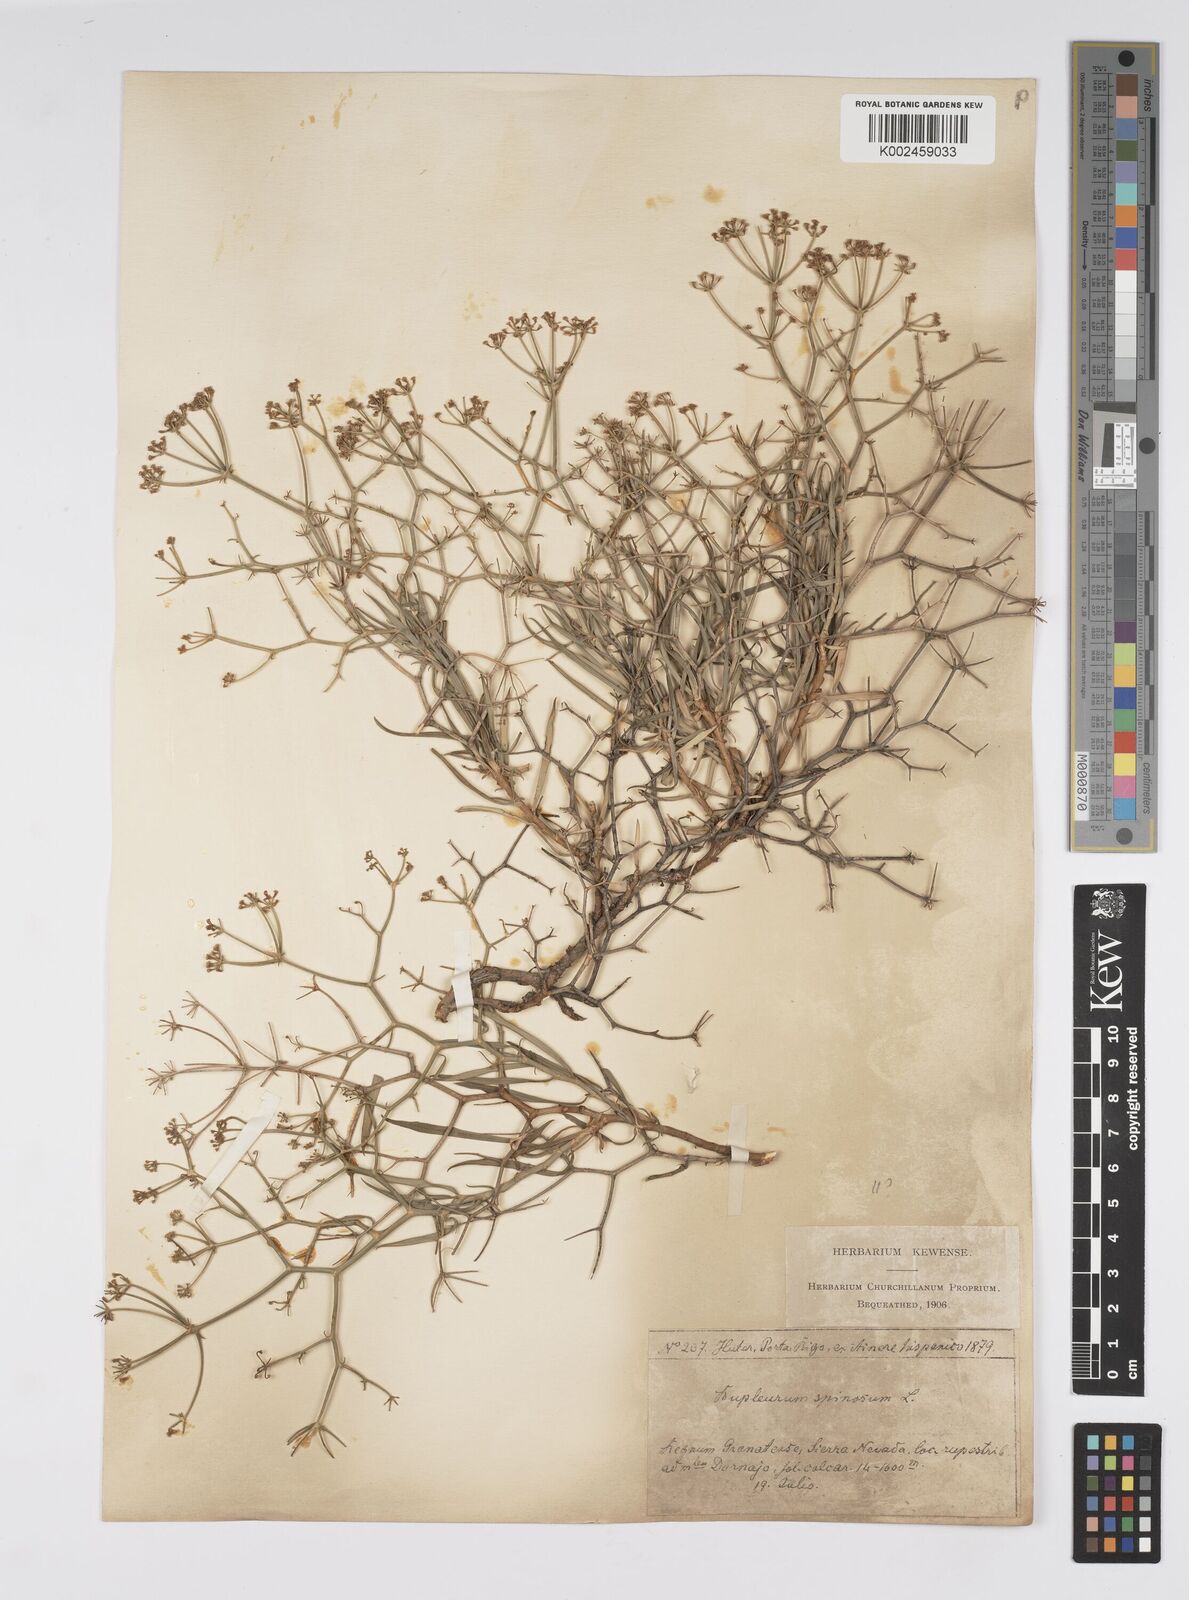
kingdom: Plantae
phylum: Tracheophyta
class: Magnoliopsida
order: Apiales
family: Apiaceae
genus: Bupleurum
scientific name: Bupleurum fruticescens
